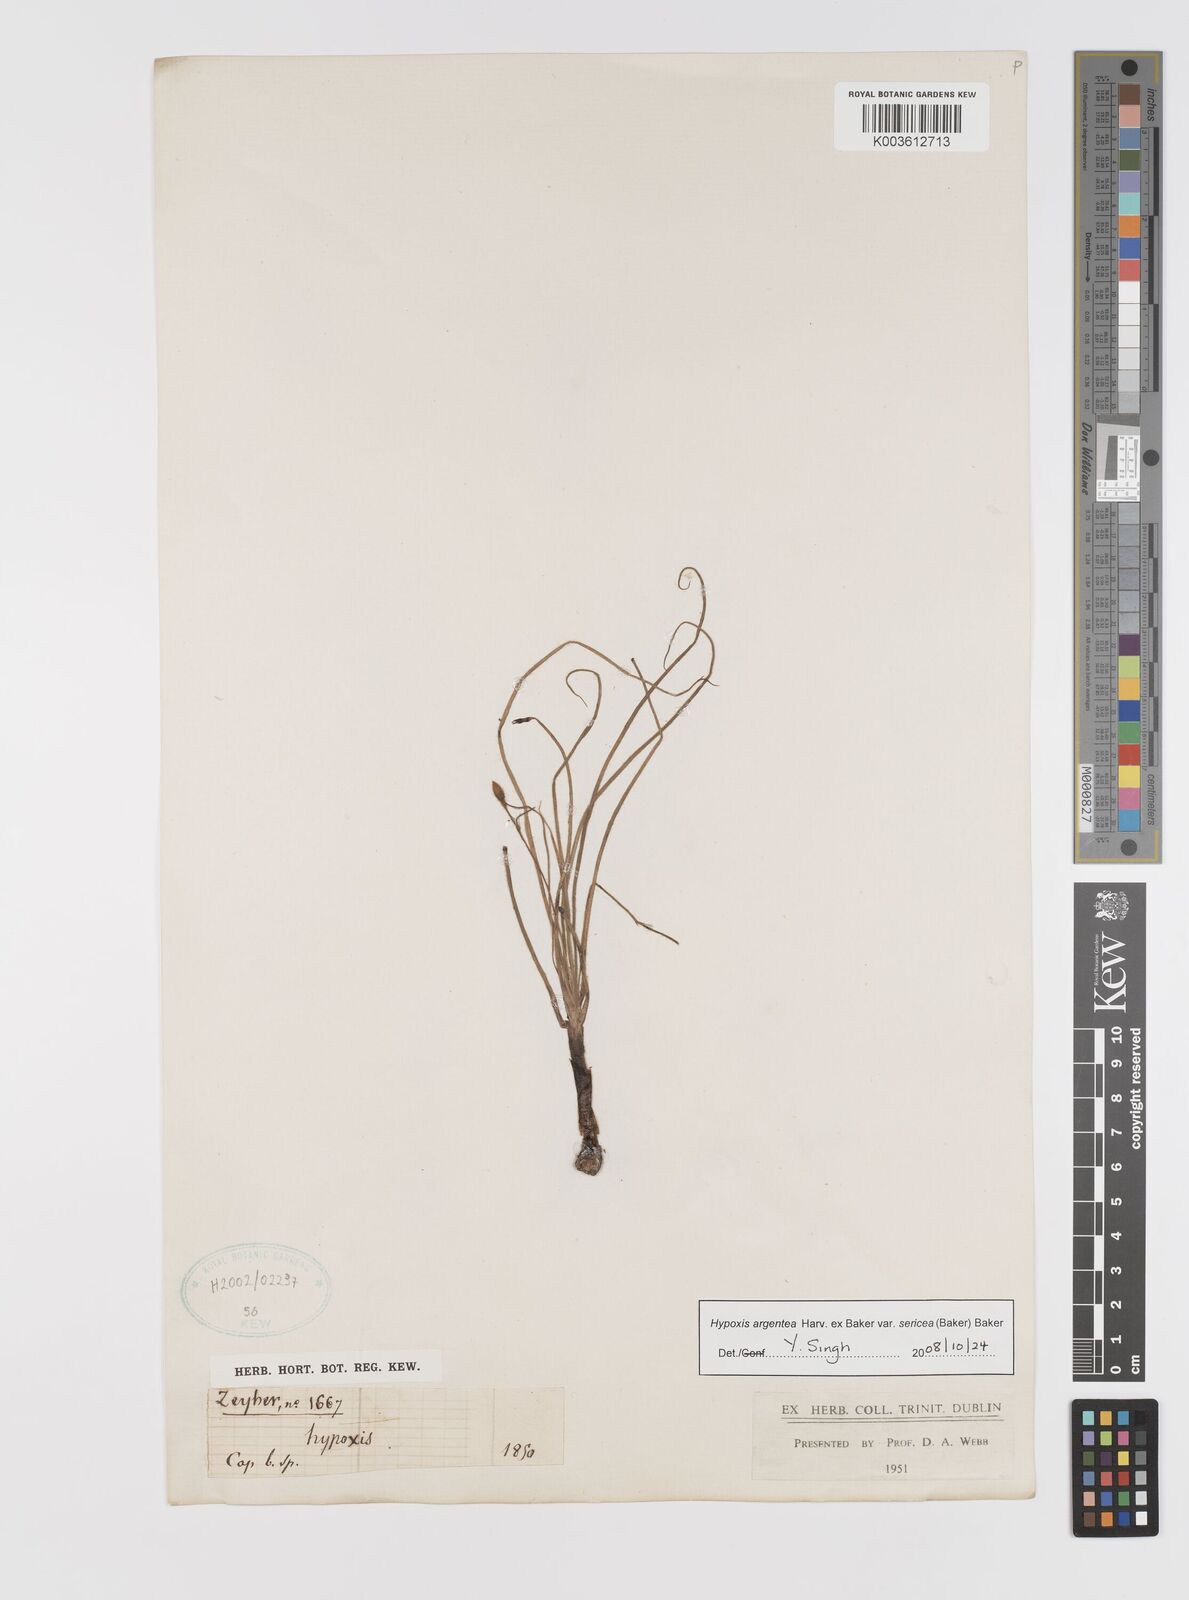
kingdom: Plantae
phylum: Tracheophyta
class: Liliopsida
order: Asparagales
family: Hypoxidaceae
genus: Hypoxis
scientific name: Hypoxis argentea
